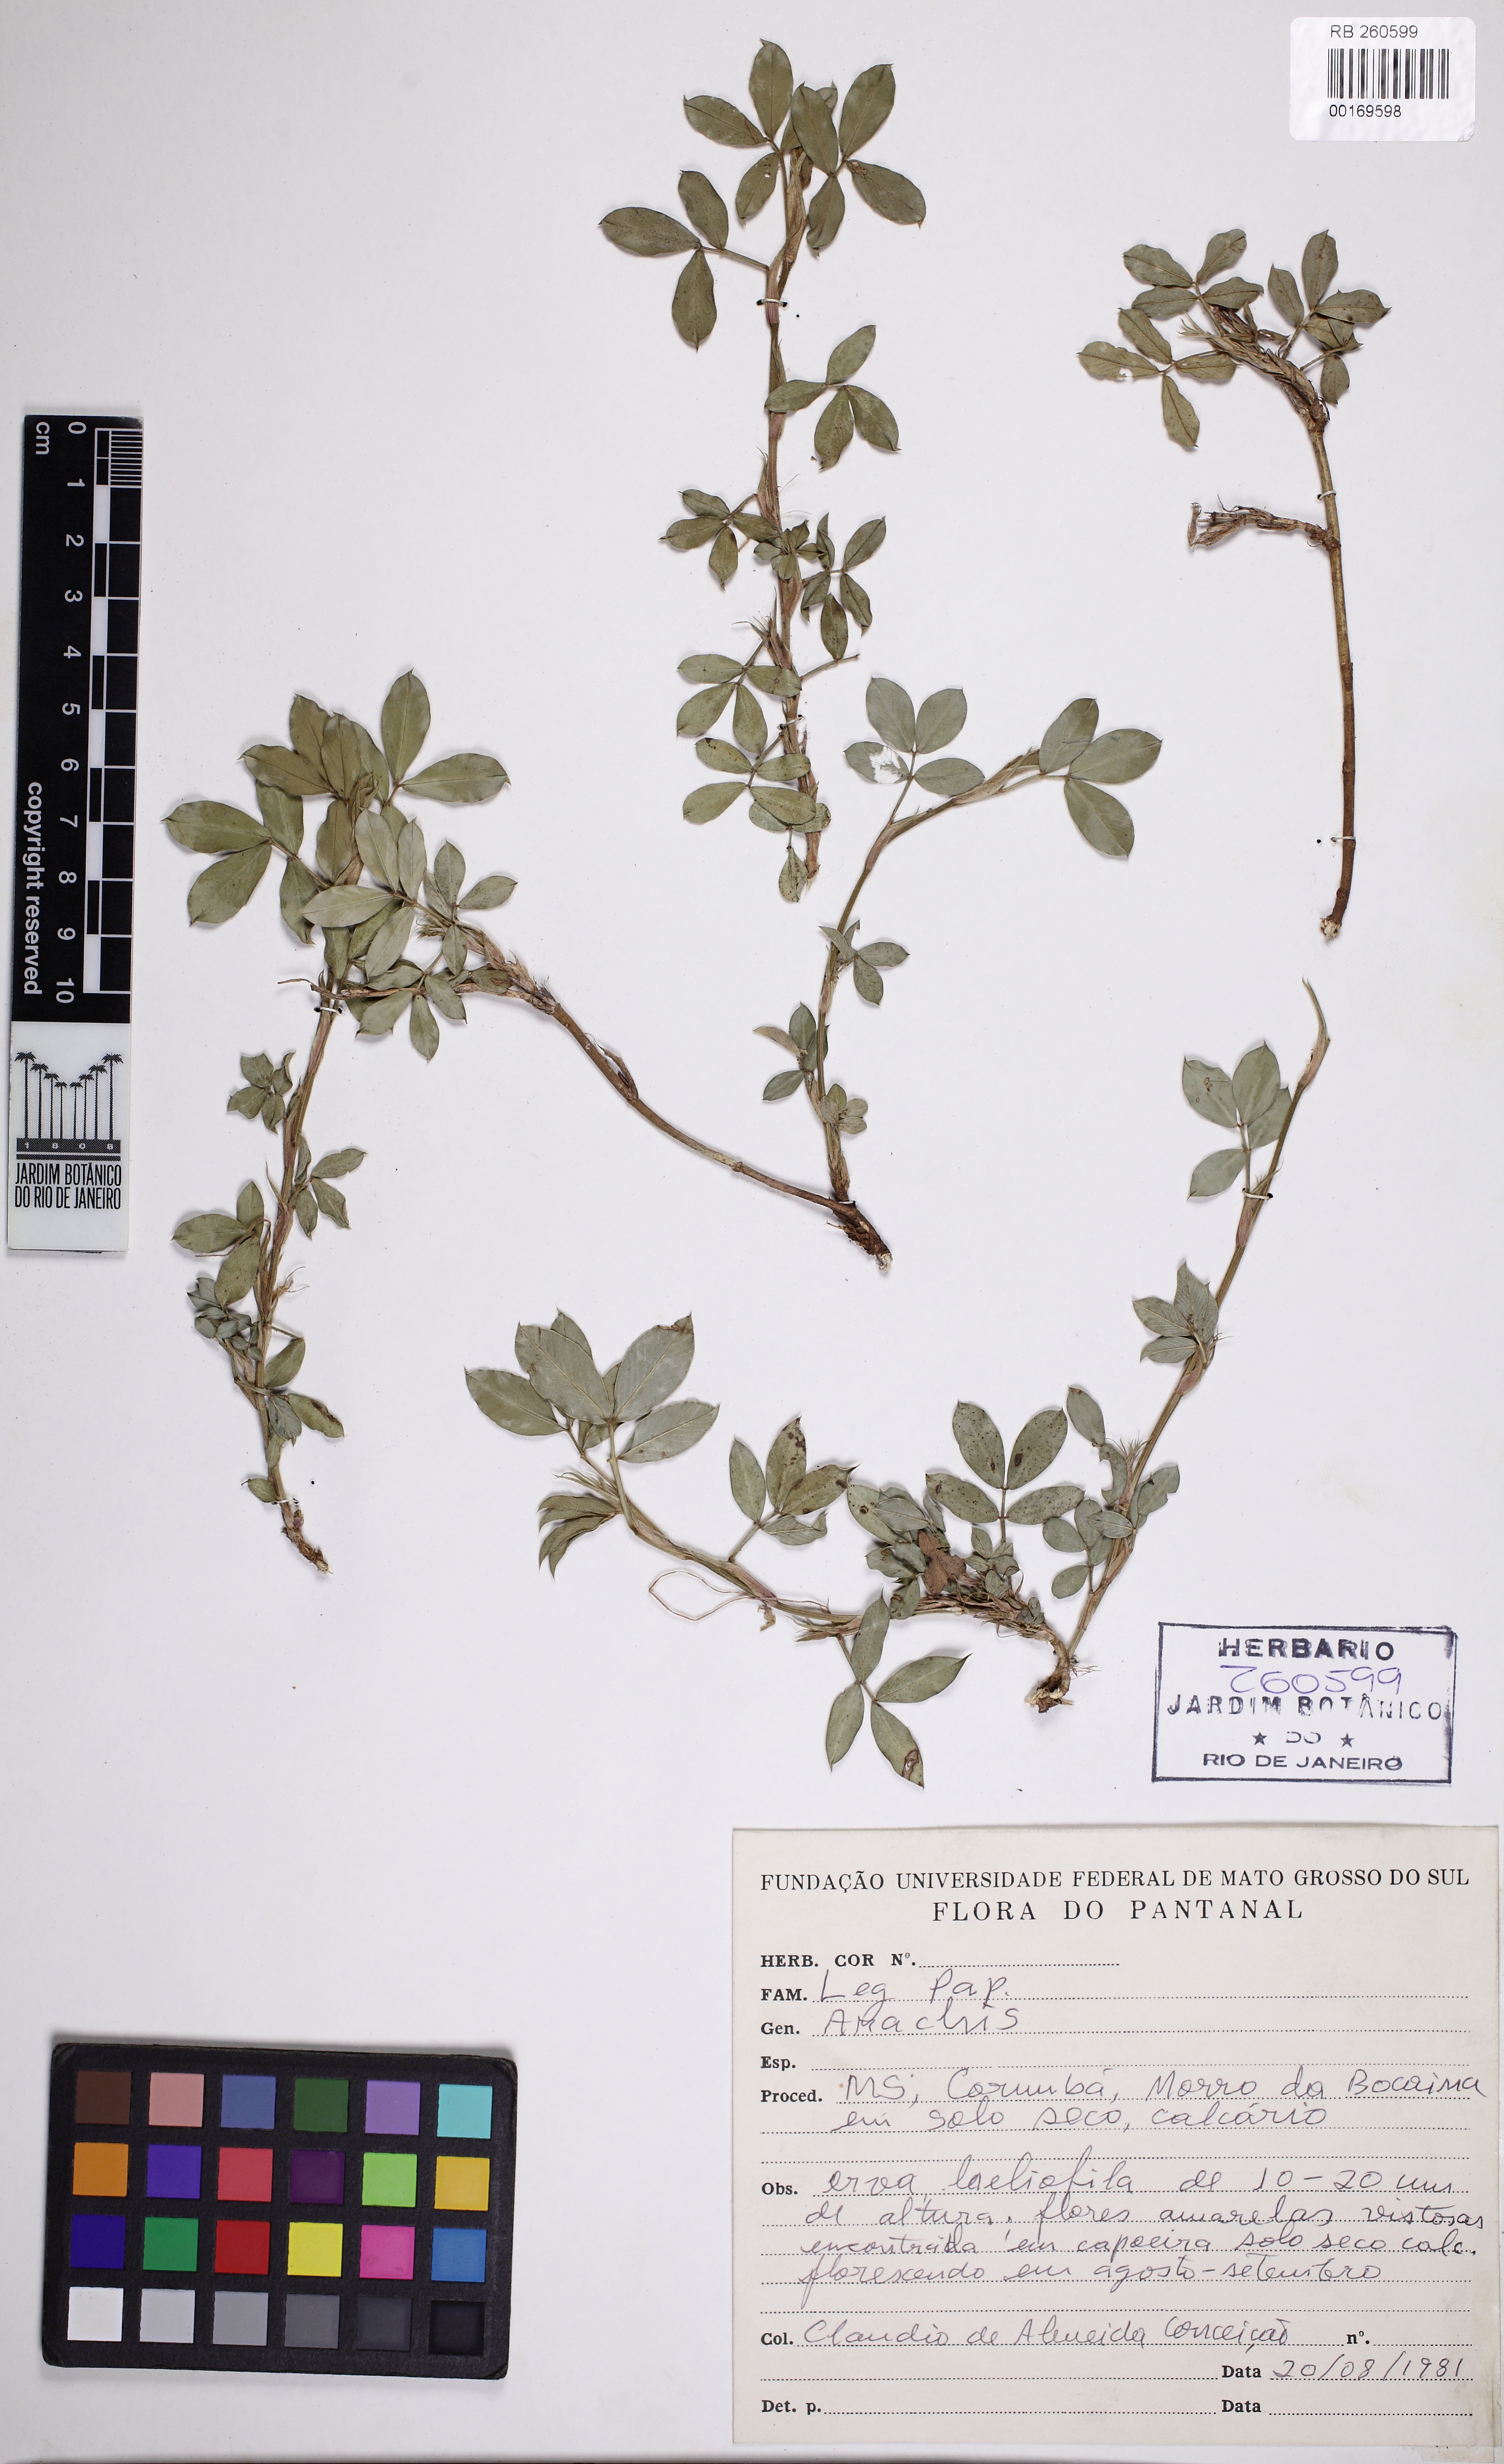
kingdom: Plantae
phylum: Tracheophyta
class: Magnoliopsida
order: Fabales
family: Fabaceae
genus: Arachis
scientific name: Arachis
